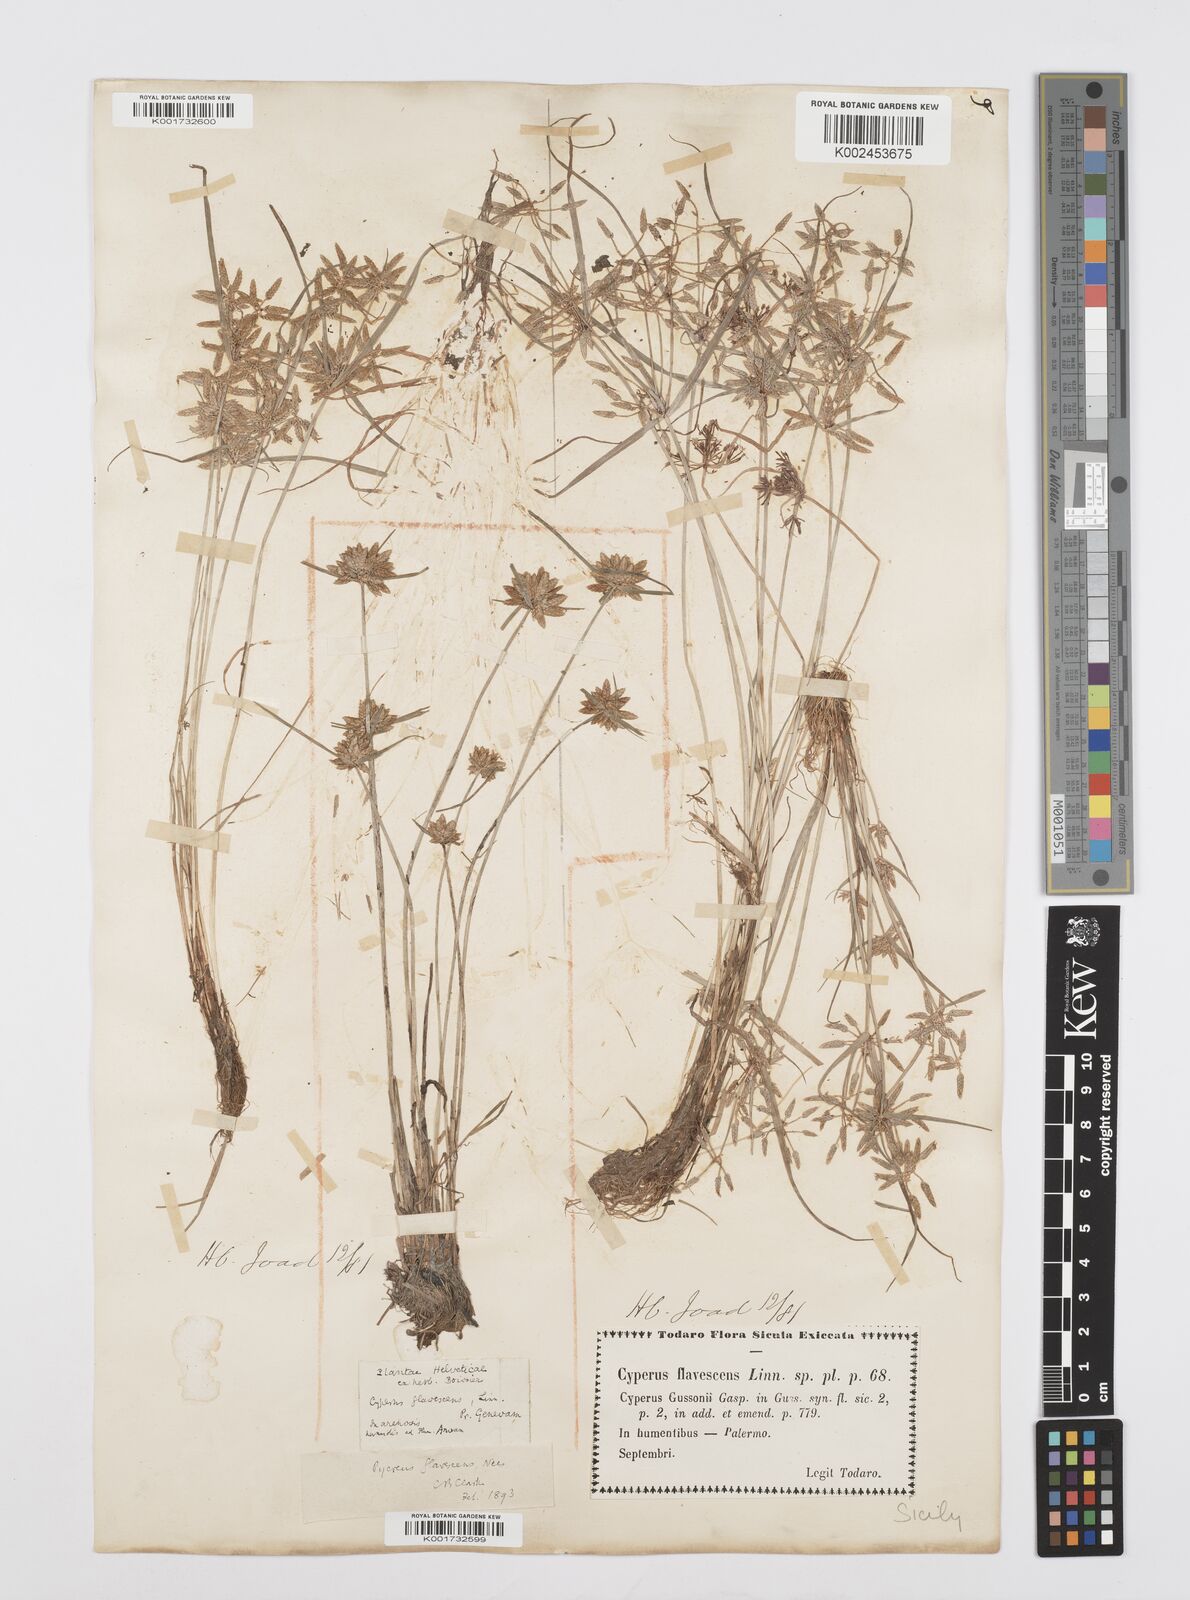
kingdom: Plantae
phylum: Tracheophyta
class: Liliopsida
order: Poales
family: Cyperaceae
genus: Cyperus
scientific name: Cyperus flavescens
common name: Yellow galingale
